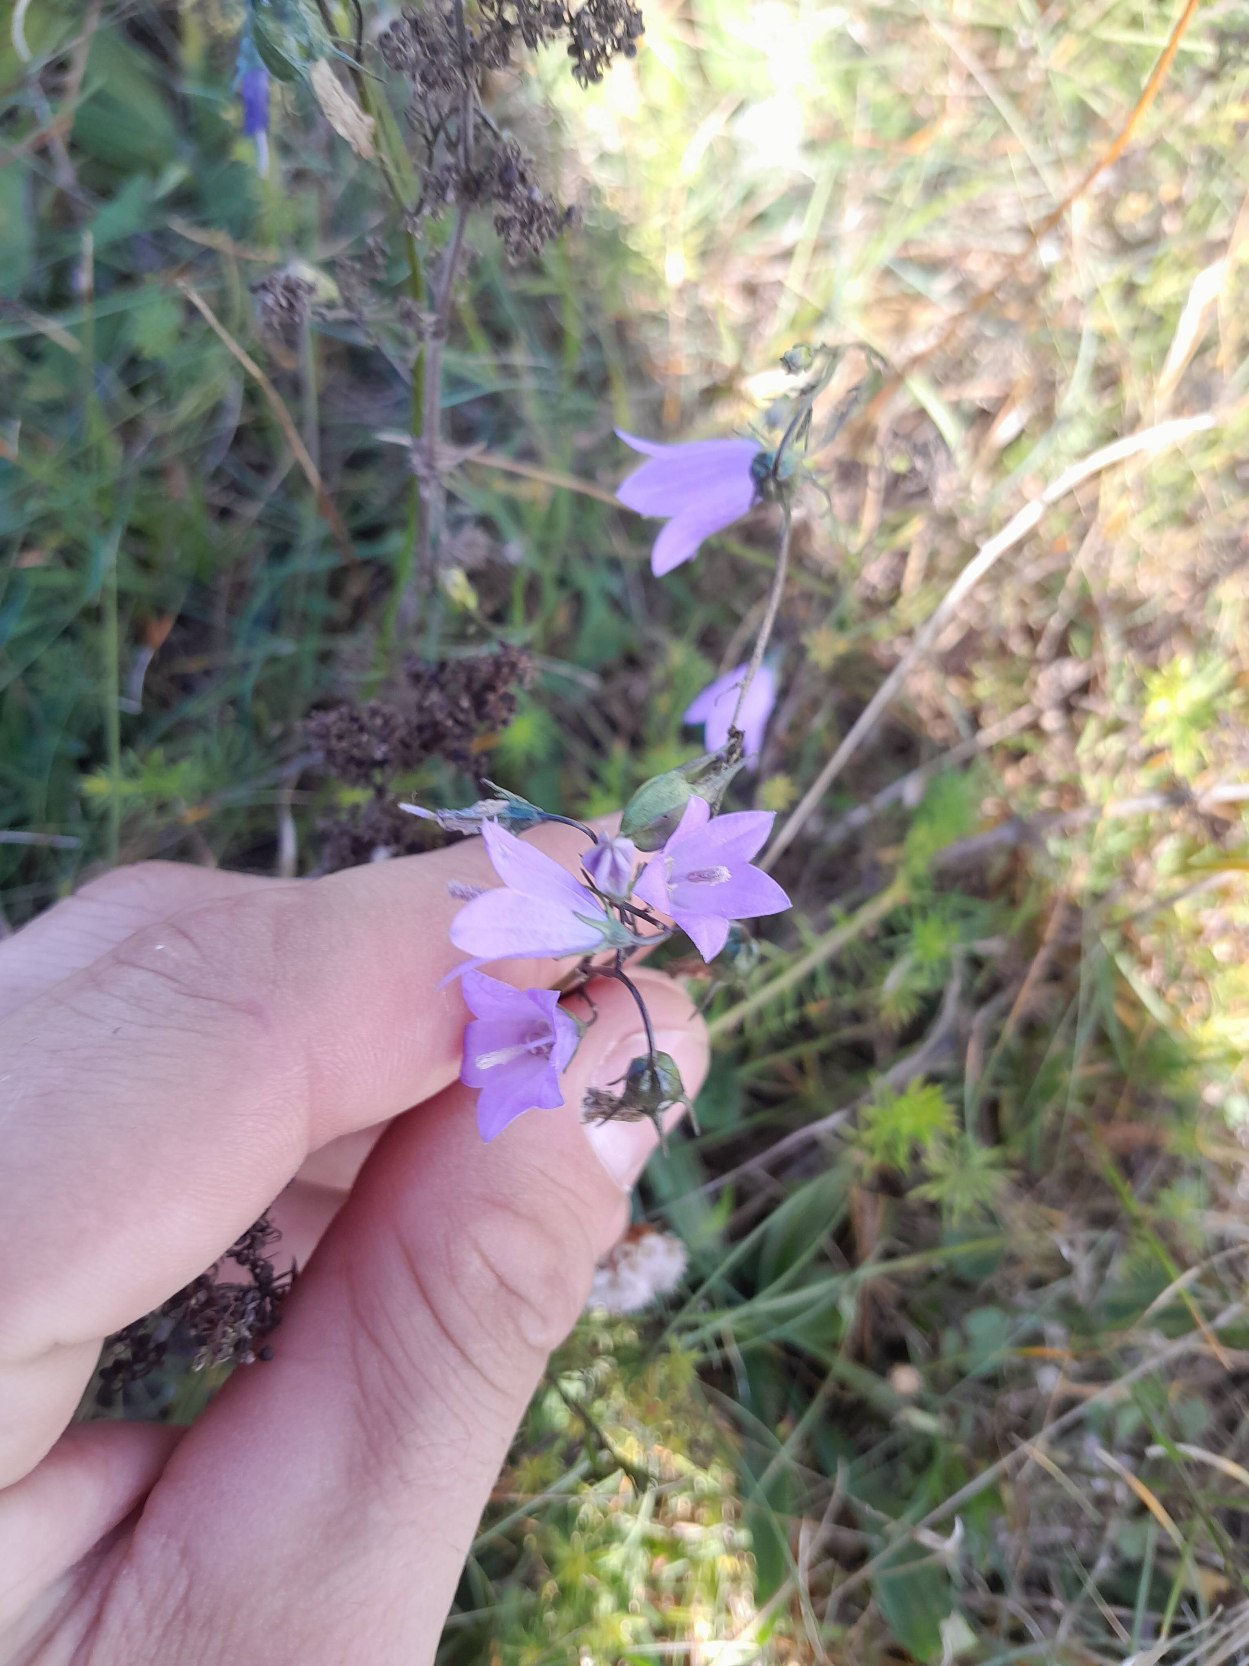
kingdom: Plantae
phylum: Tracheophyta
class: Magnoliopsida
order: Asterales
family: Campanulaceae
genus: Campanula
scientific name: Campanula rotundifolia
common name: Liden klokke
